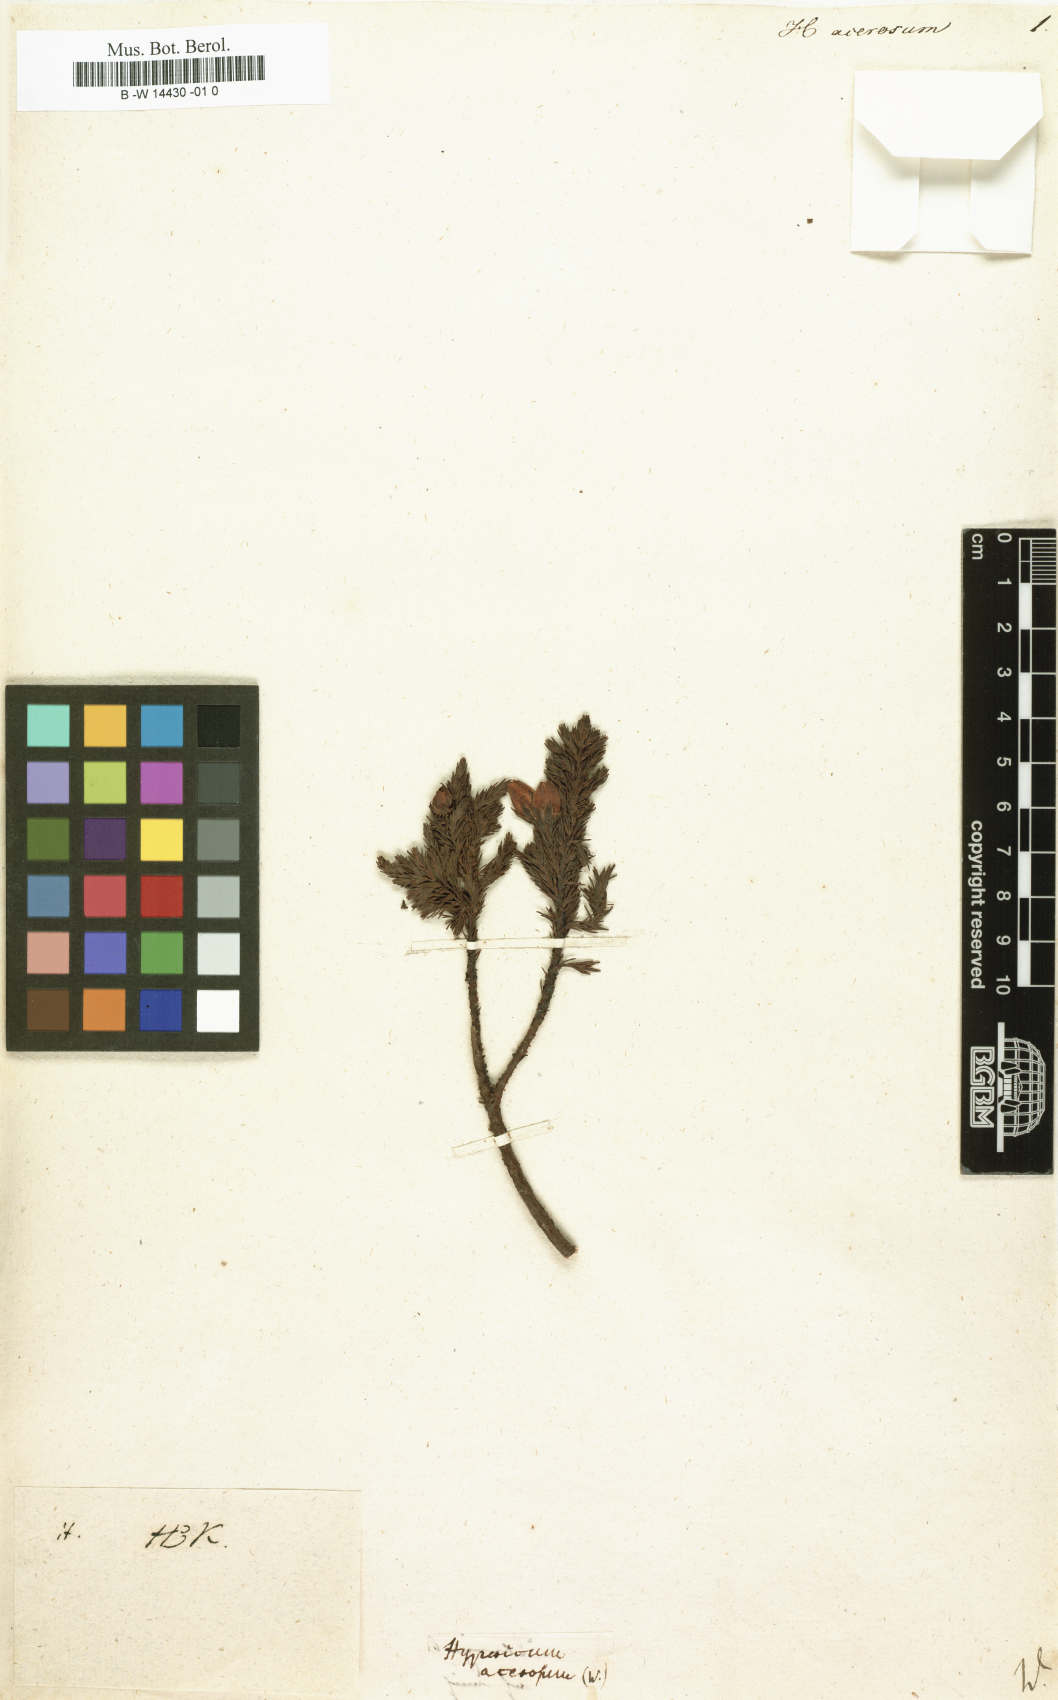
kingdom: Plantae
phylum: Tracheophyta
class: Magnoliopsida
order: Malpighiales
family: Hypericaceae
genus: Hypericum
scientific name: Hypericum laricifolium
